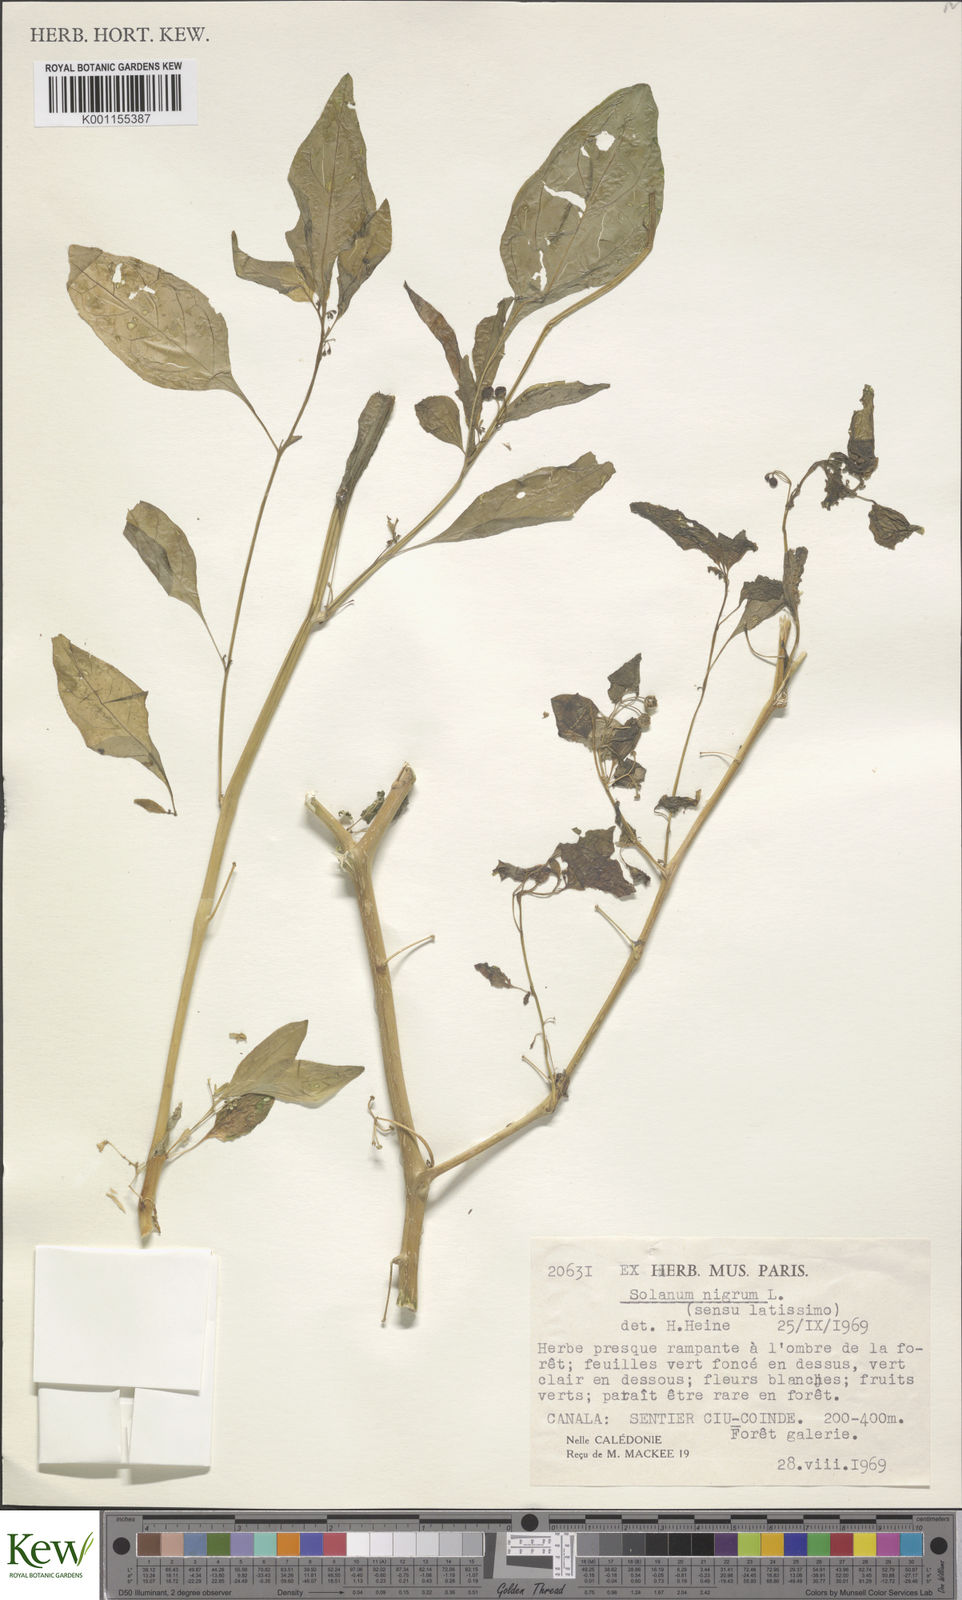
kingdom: Plantae
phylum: Tracheophyta
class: Magnoliopsida
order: Solanales
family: Solanaceae
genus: Solanum
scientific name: Solanum americanum
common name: American black nightshade
